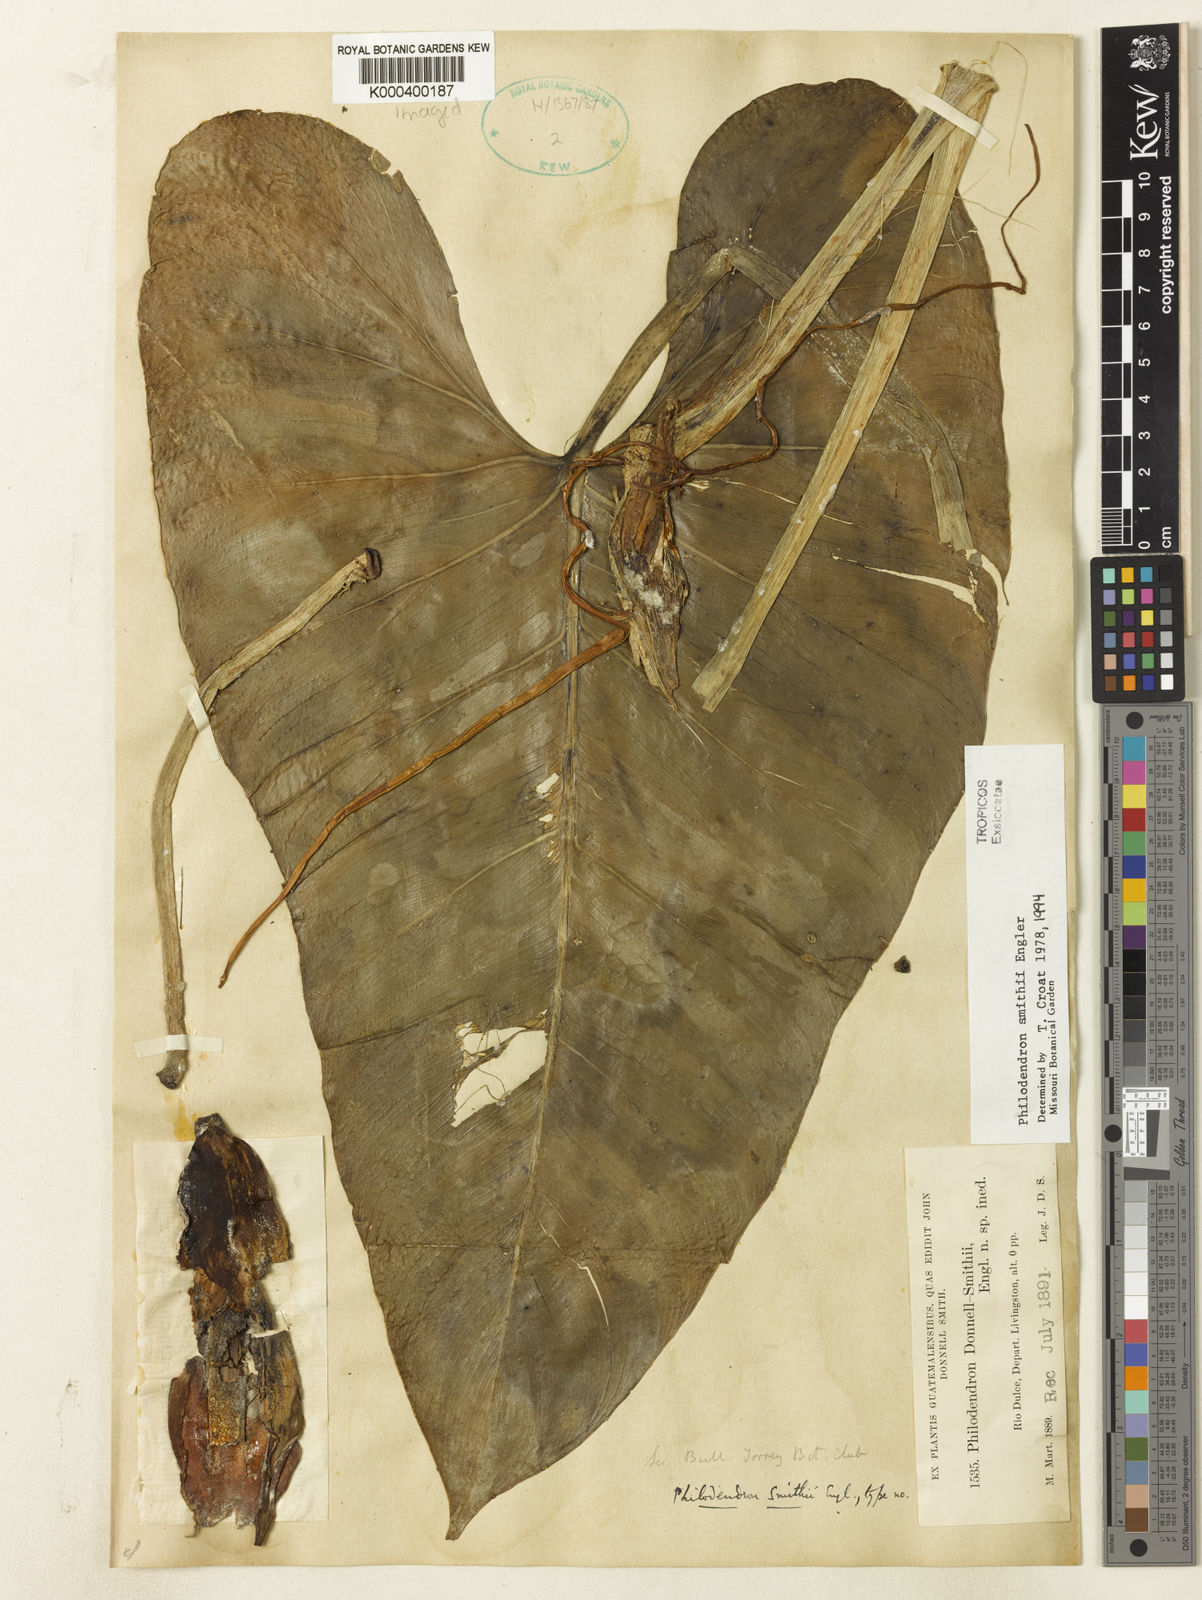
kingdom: Plantae
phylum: Tracheophyta
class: Liliopsida
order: Alismatales
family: Araceae
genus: Philodendron
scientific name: Philodendron smithii
